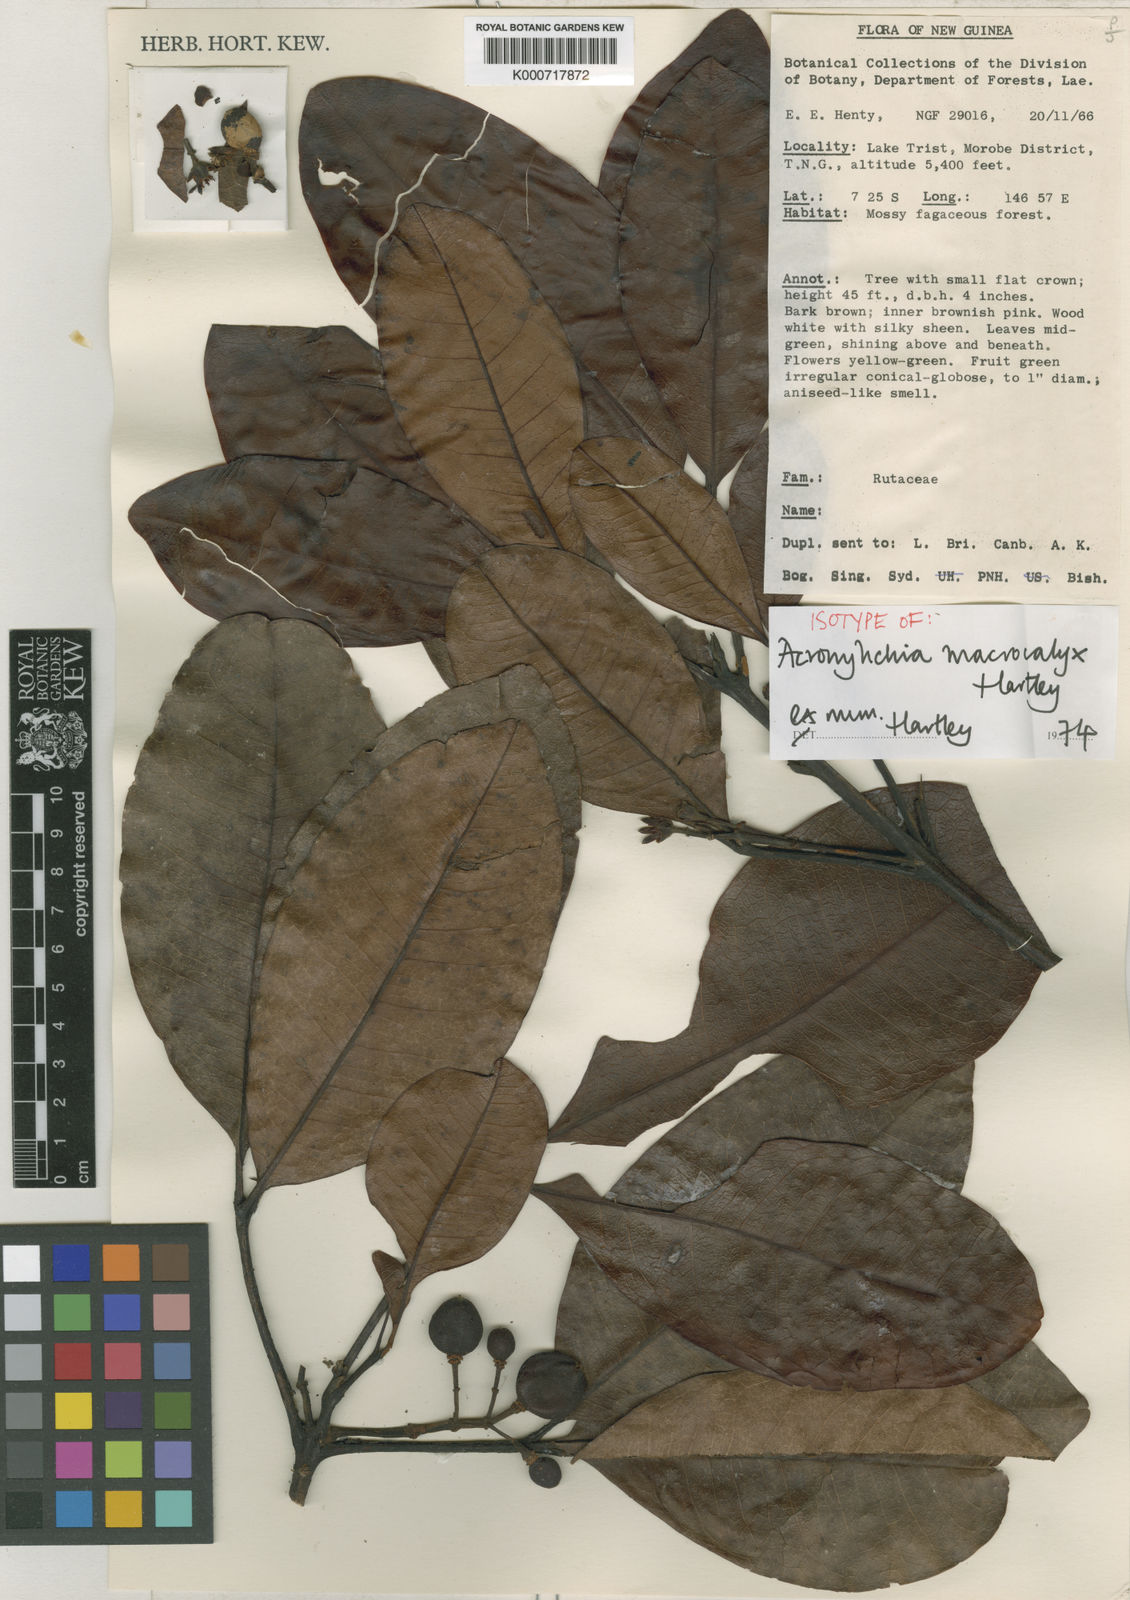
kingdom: Plantae
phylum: Tracheophyta
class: Magnoliopsida
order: Sapindales
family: Rutaceae
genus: Acronychia
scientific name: Acronychia macrocalyx
